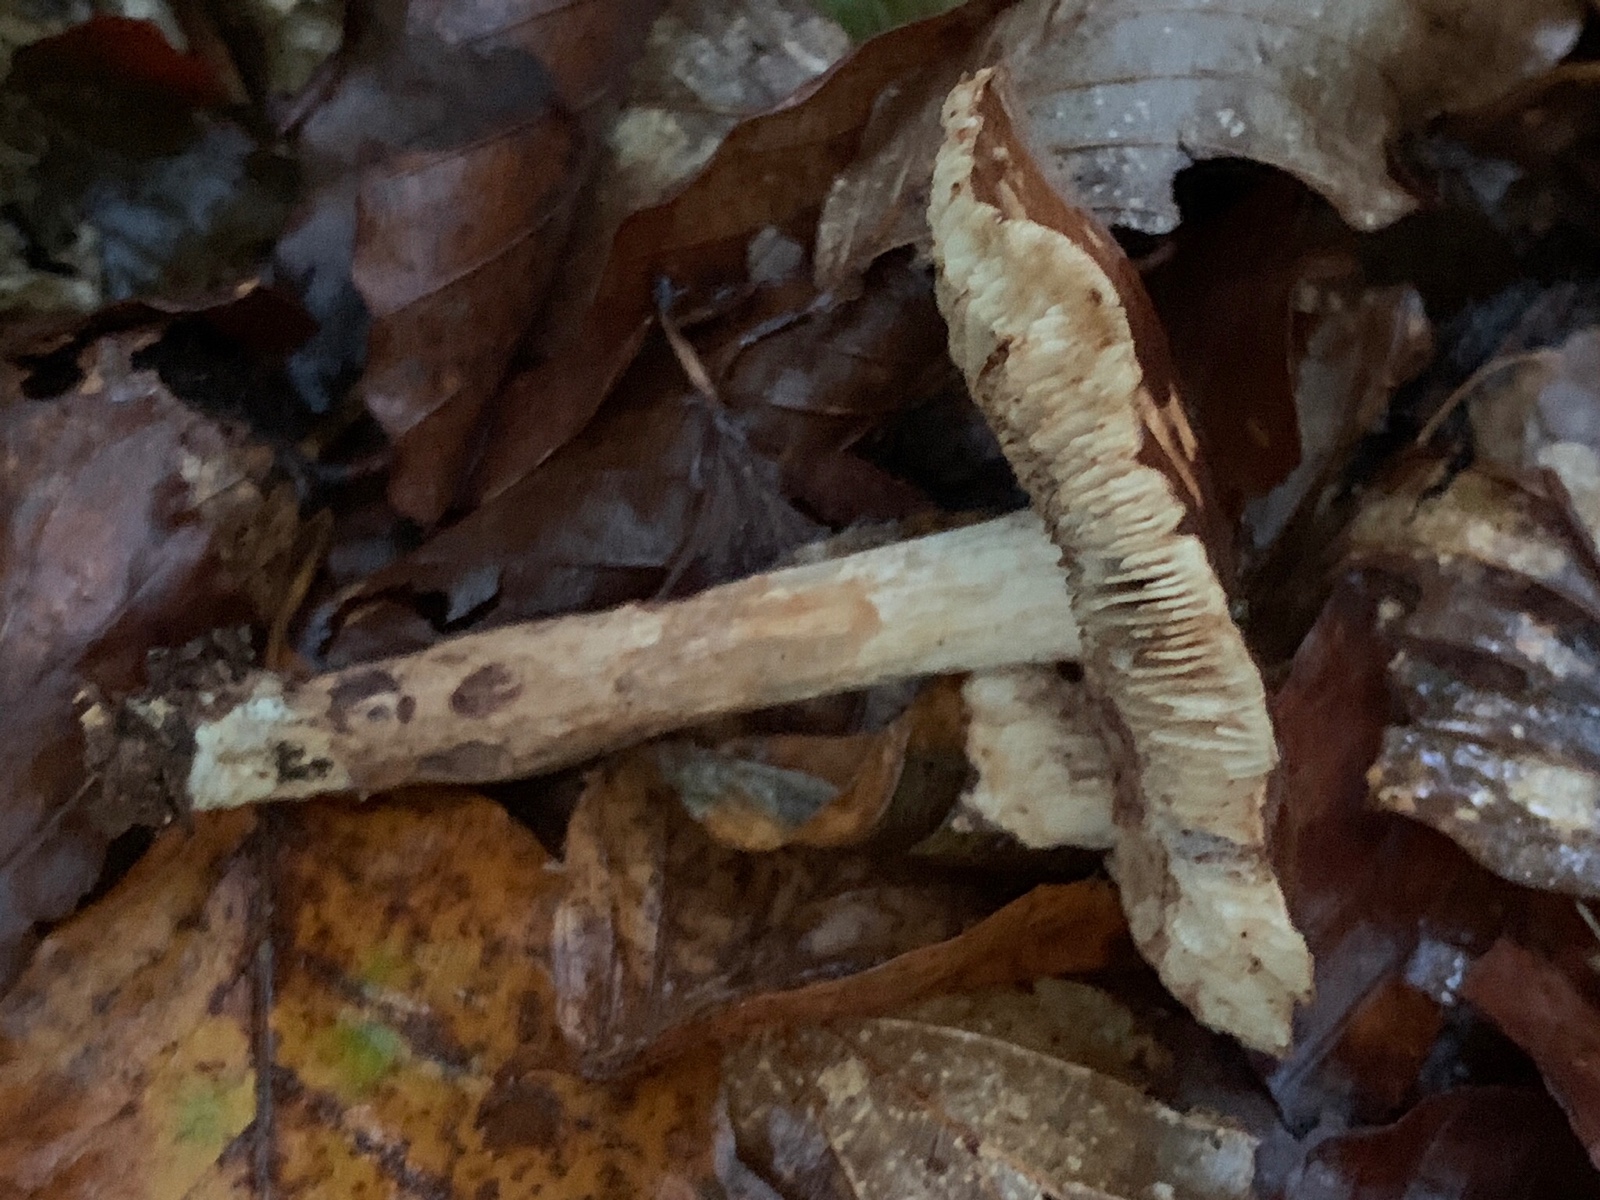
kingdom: Fungi
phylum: Basidiomycota
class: Agaricomycetes
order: Agaricales
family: Tricholomataceae
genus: Tricholoma
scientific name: Tricholoma ustale
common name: sveden ridderhat
